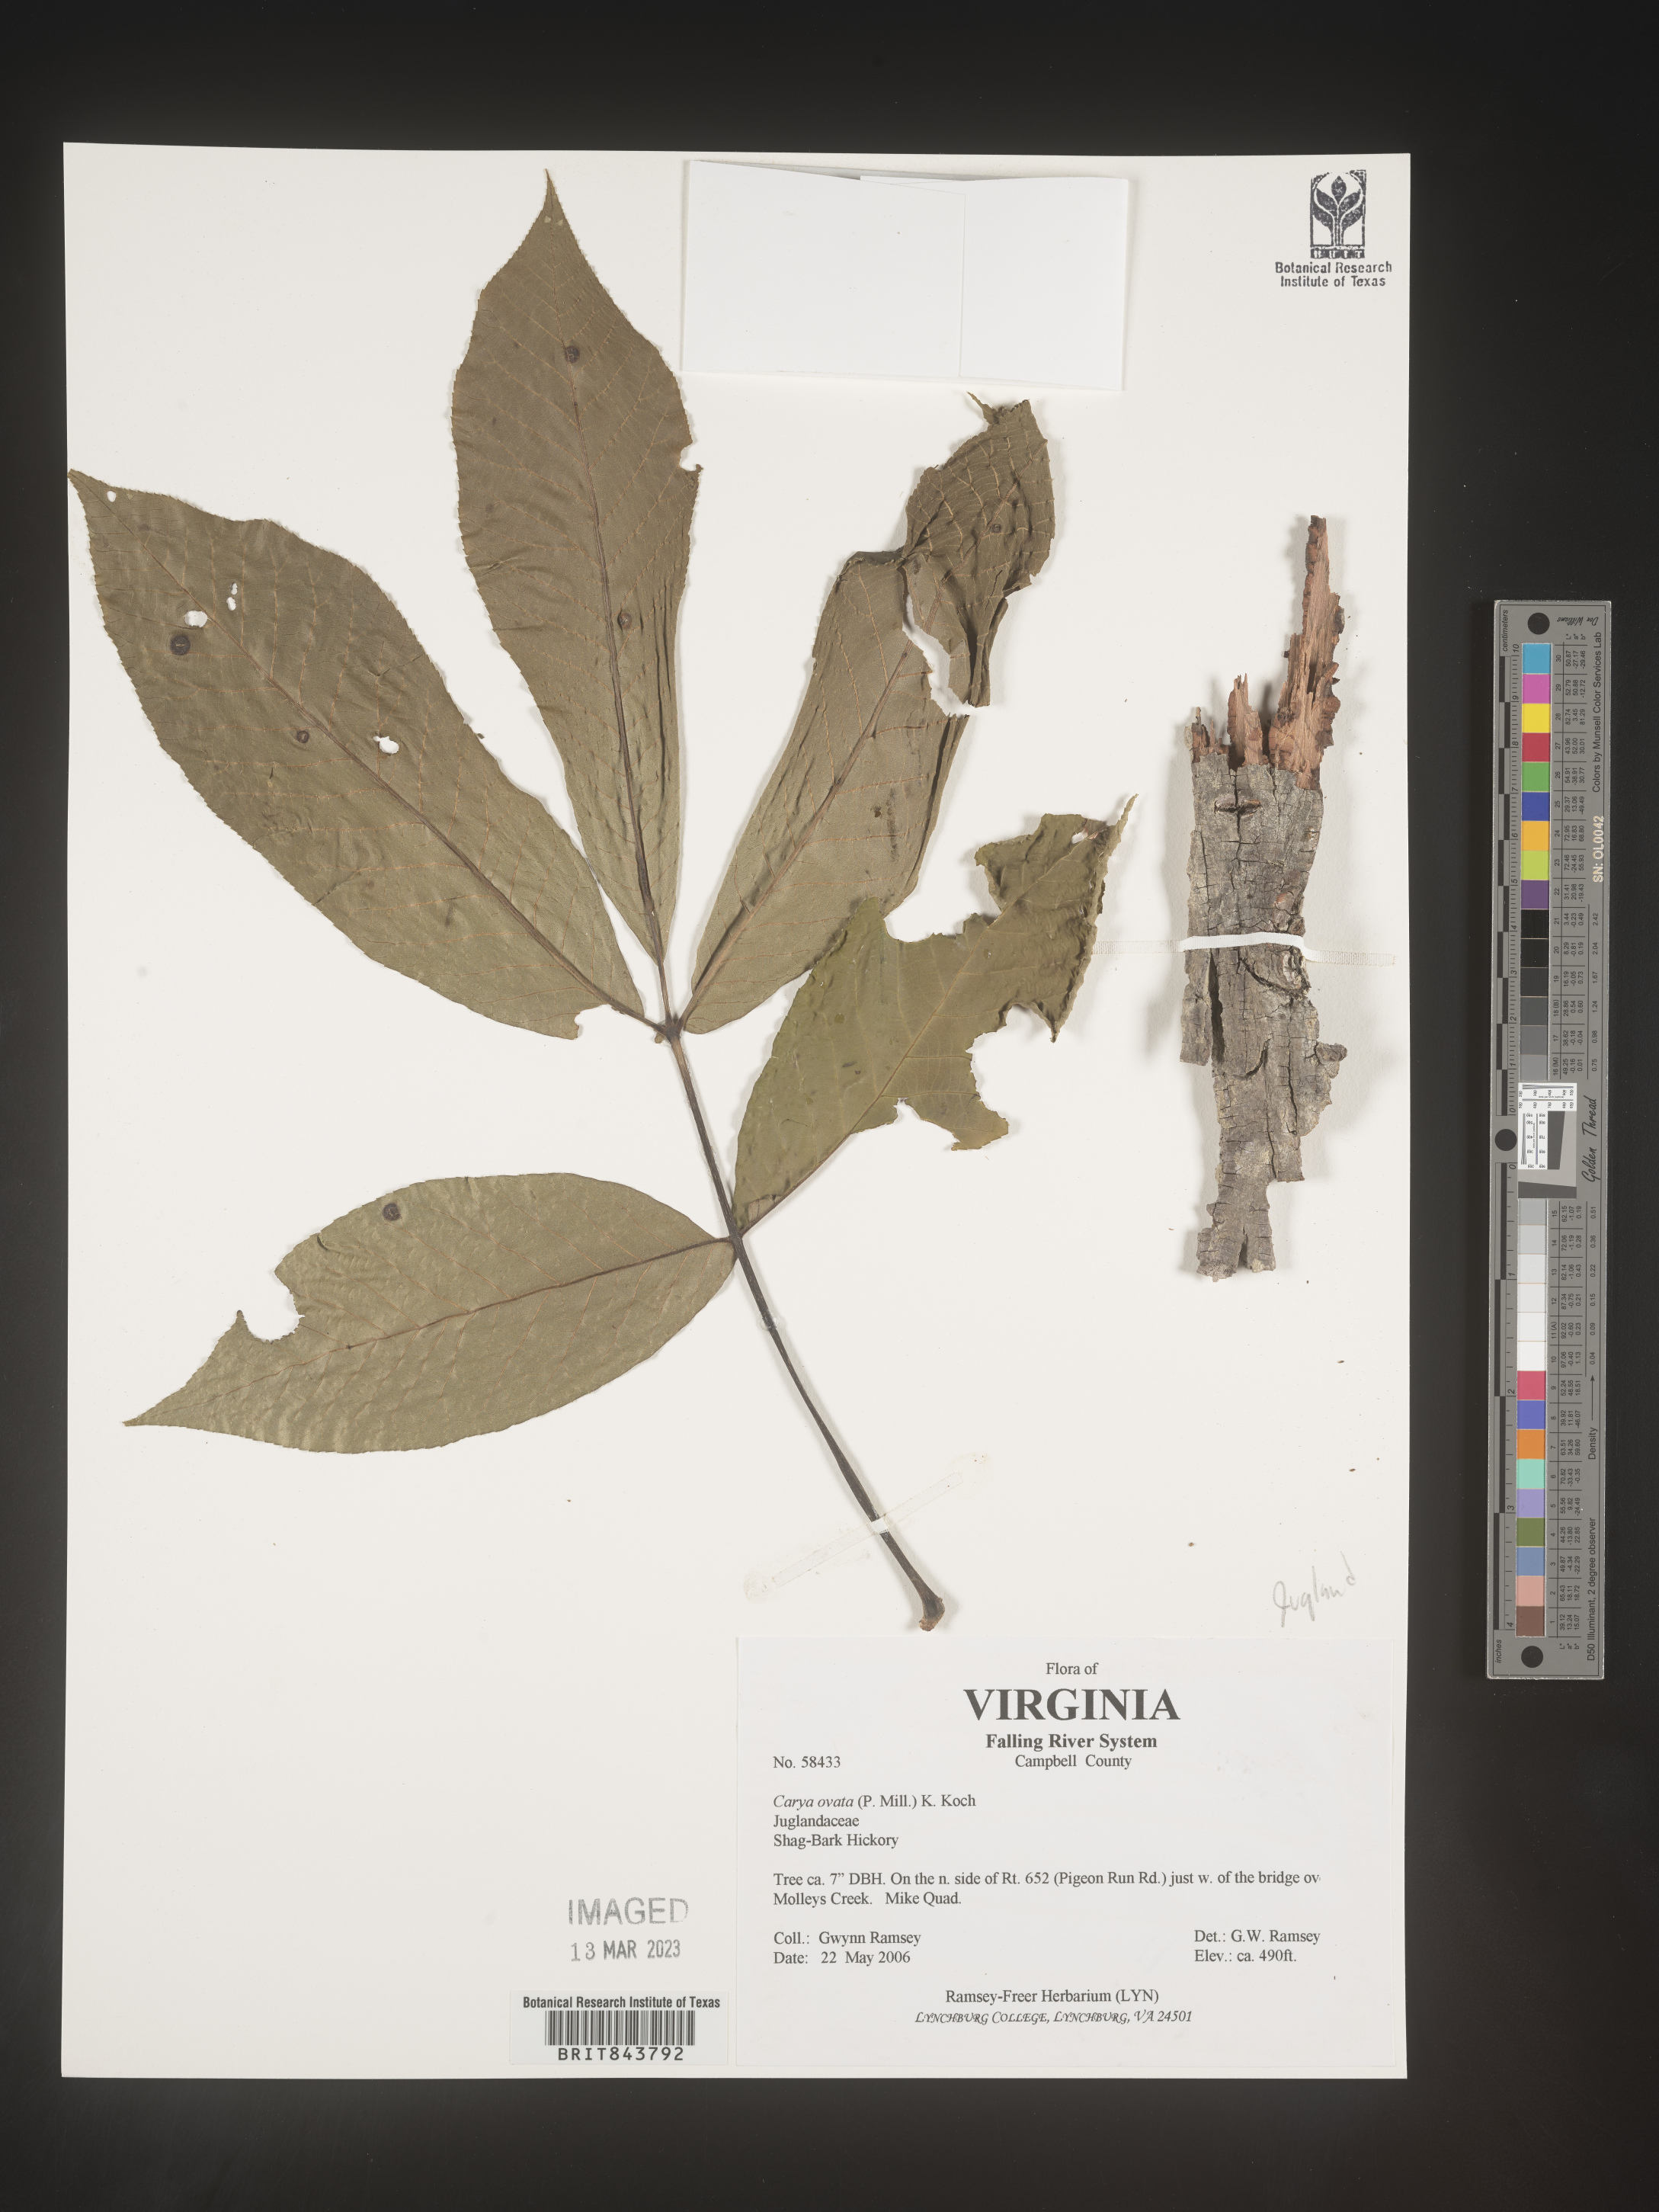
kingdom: Plantae
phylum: Tracheophyta
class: Magnoliopsida
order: Fagales
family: Juglandaceae
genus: Carya
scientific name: Carya ovata
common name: Shagbark hickory
